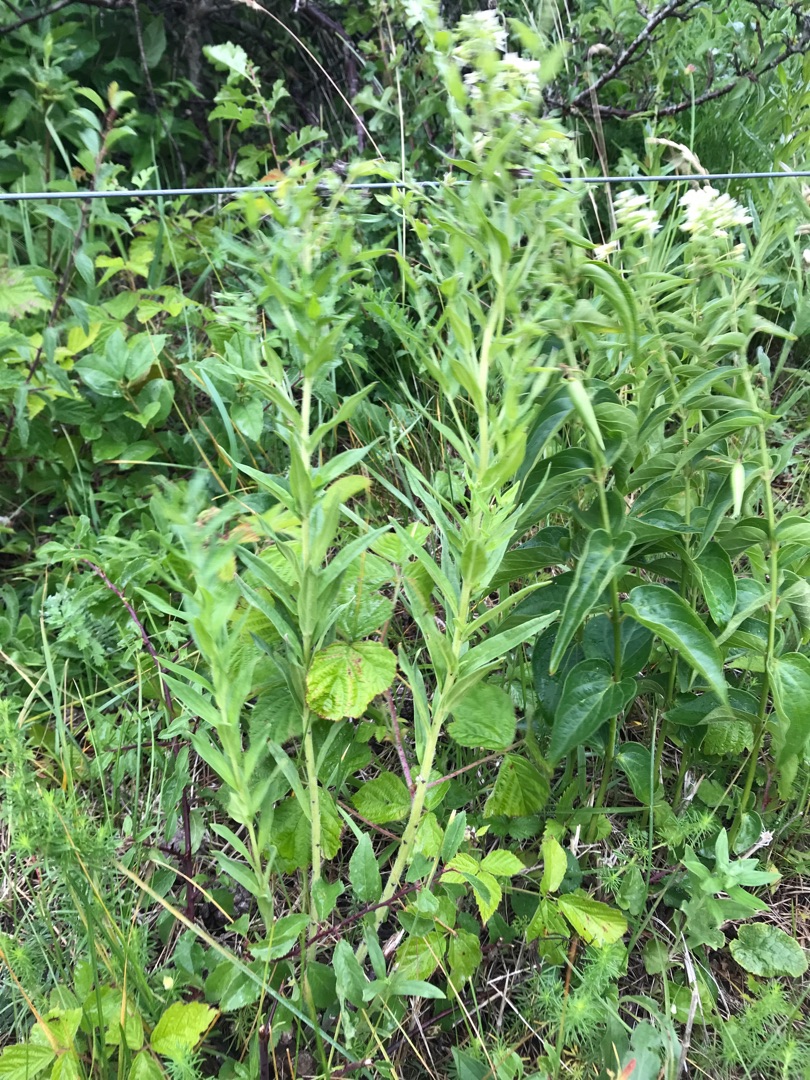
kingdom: Plantae
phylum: Tracheophyta
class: Magnoliopsida
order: Boraginales
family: Boraginaceae
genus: Lithospermum
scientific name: Lithospermum officinale
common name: Læge-stenfrø
